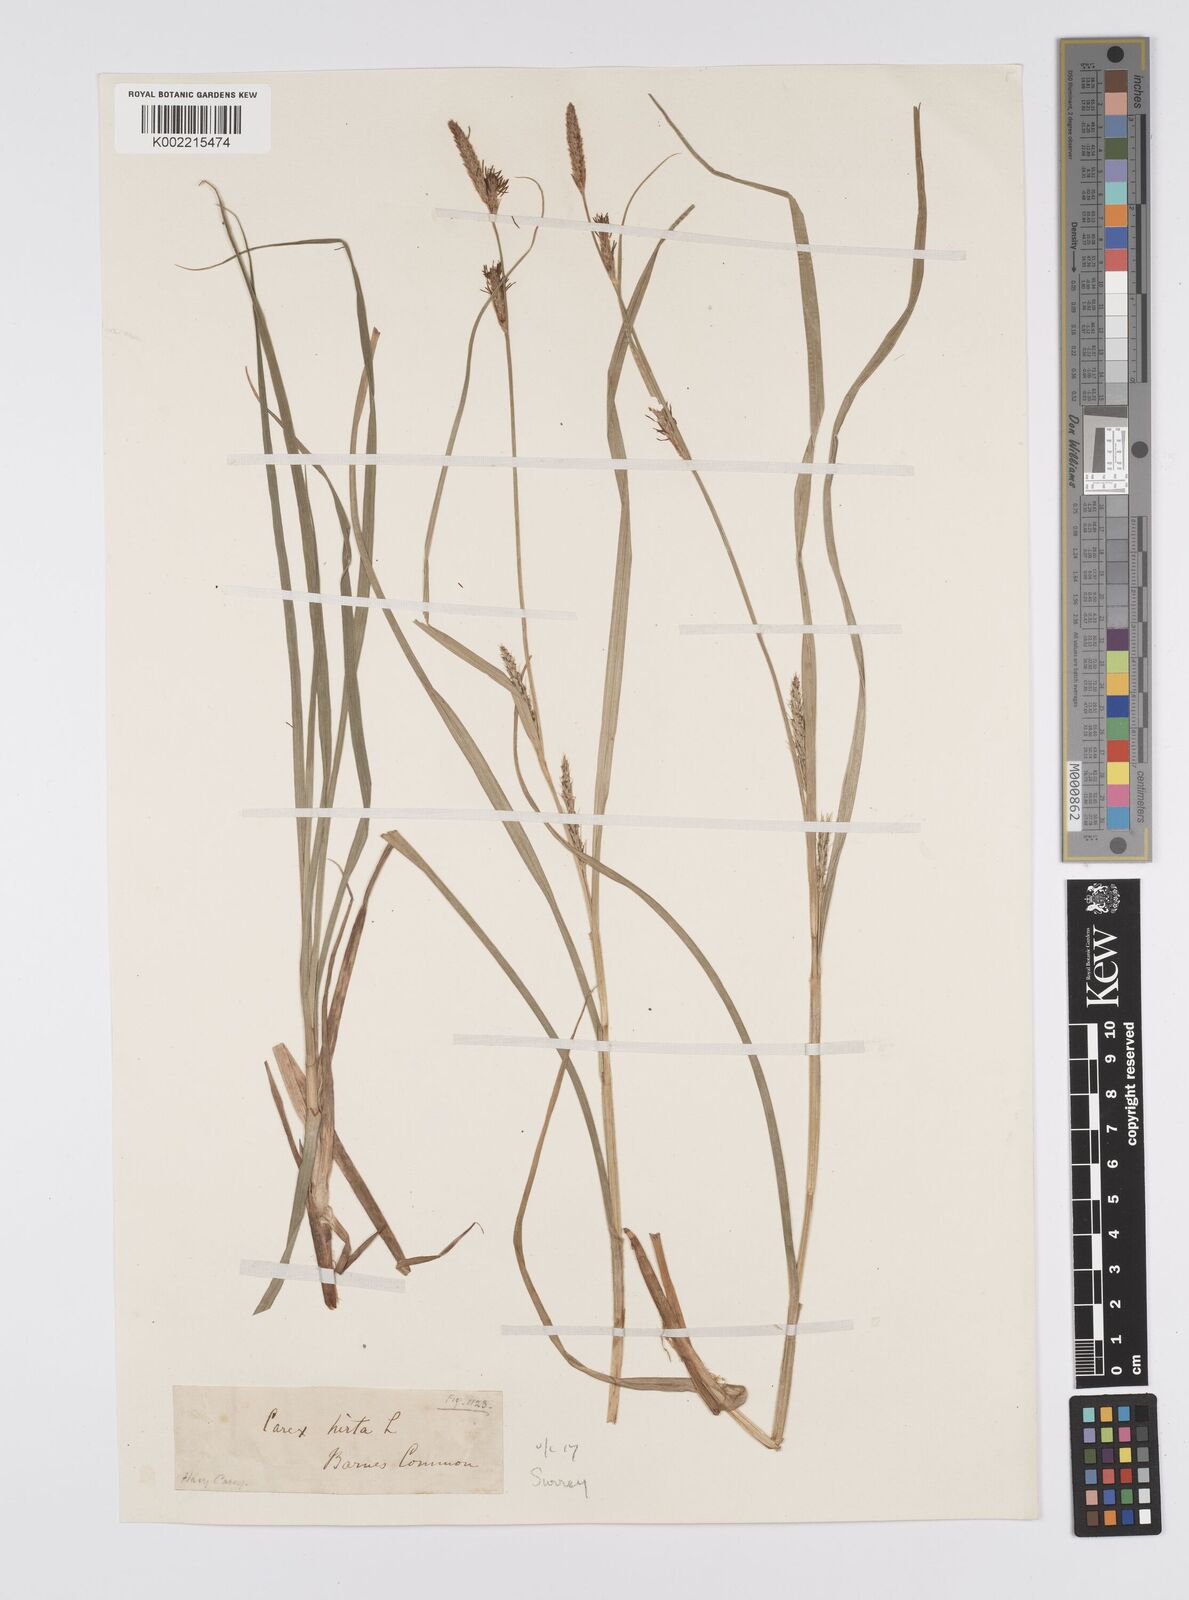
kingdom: Plantae
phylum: Tracheophyta
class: Liliopsida
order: Poales
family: Cyperaceae
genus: Carex
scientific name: Carex hirta
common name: Hairy sedge
